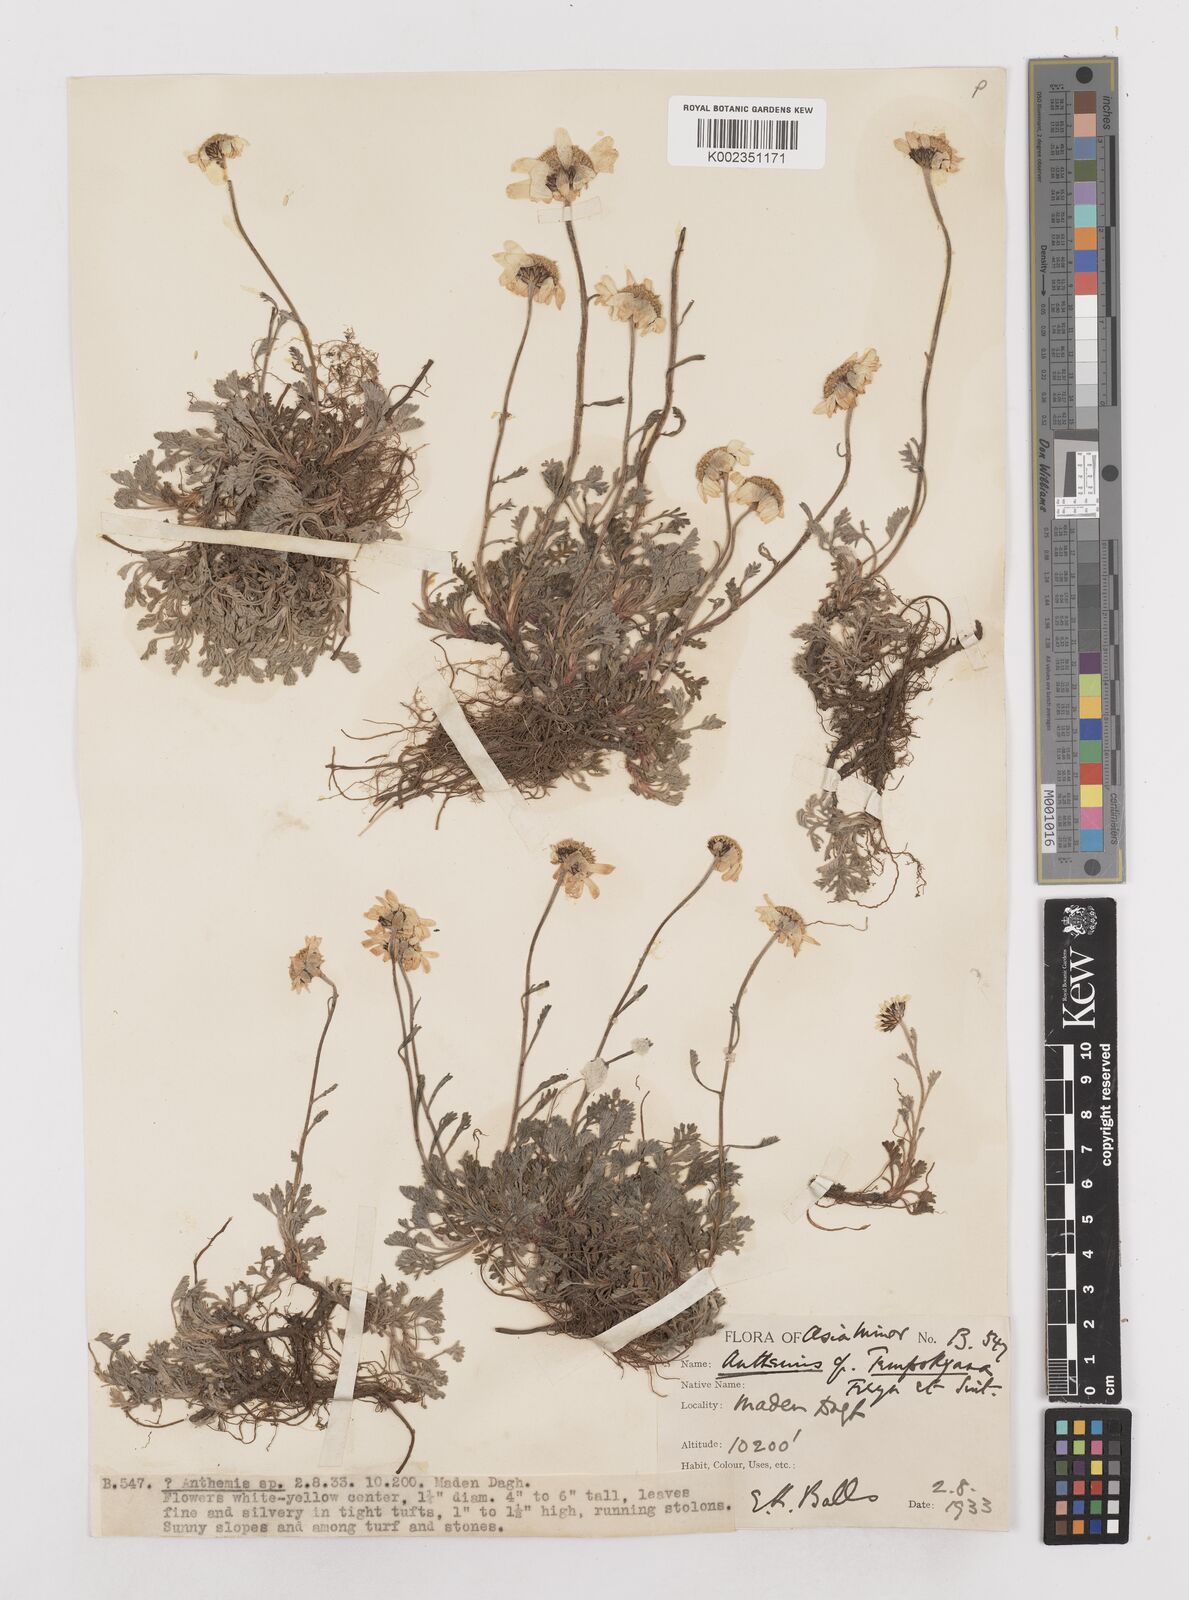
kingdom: Plantae
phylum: Tracheophyta
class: Magnoliopsida
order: Asterales
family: Asteraceae
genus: Anthemis
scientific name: Anthemis cretica
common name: Mountain dog-daisy
